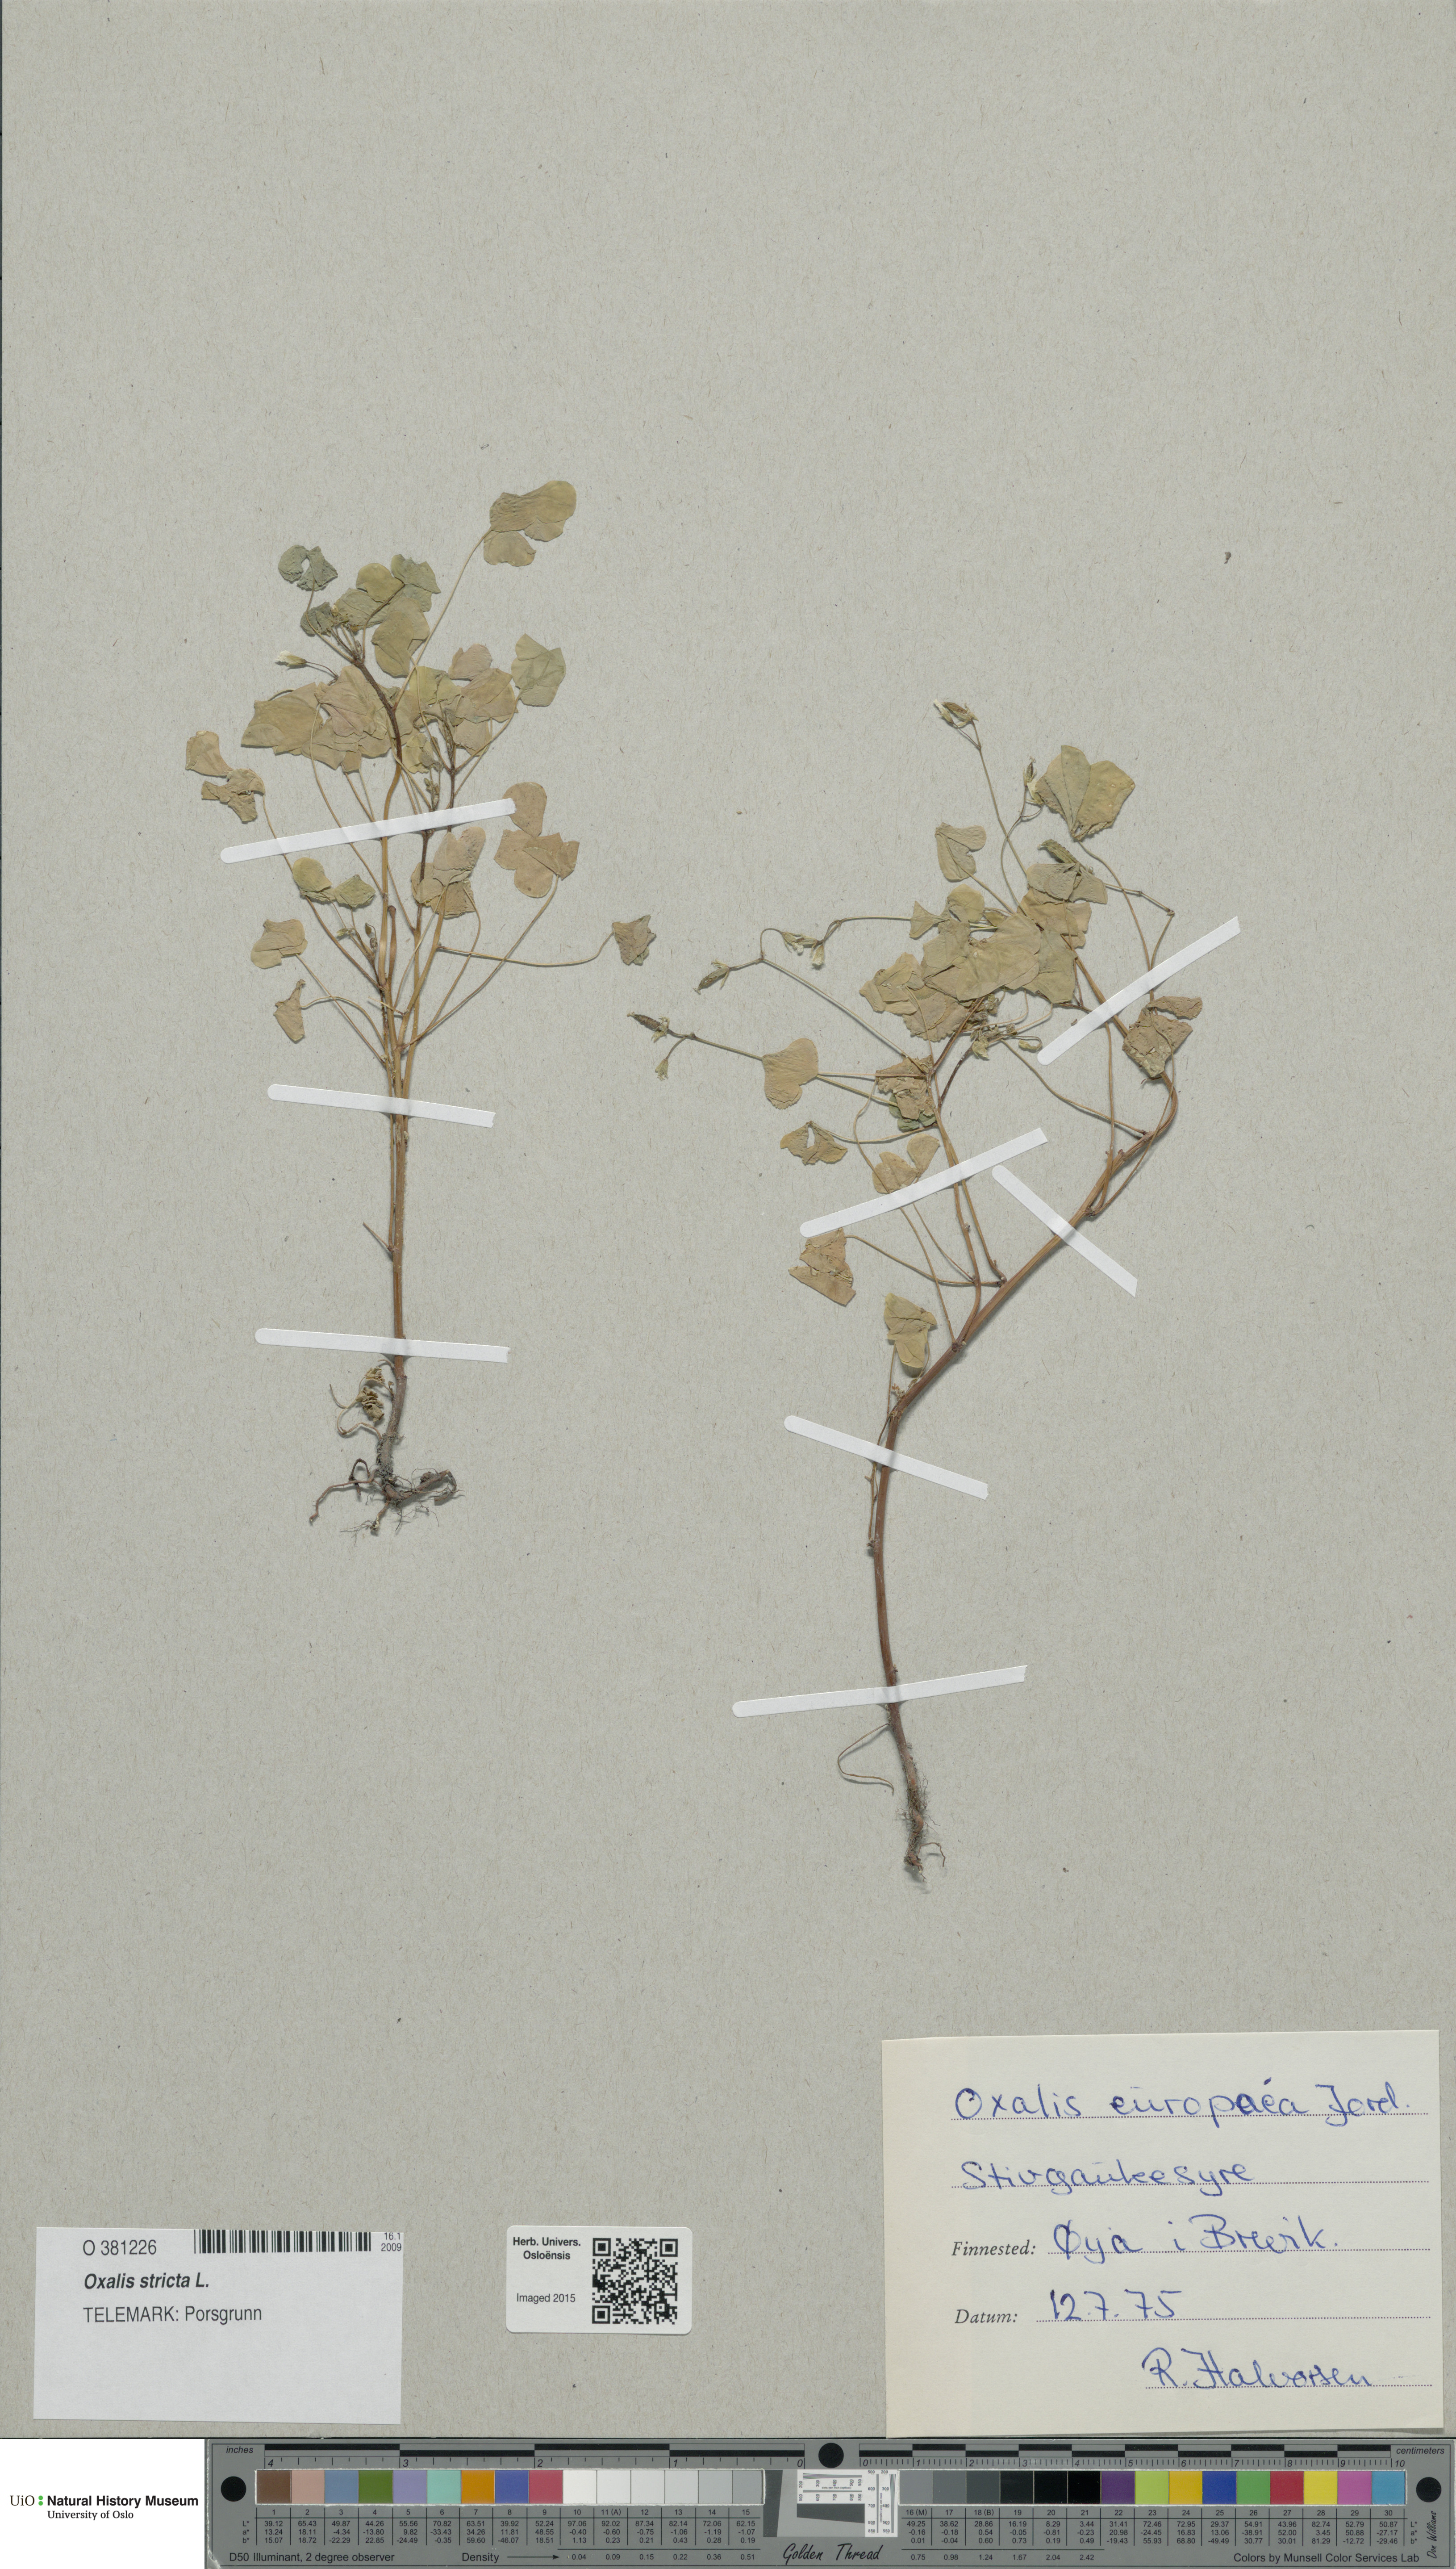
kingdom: Plantae
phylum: Tracheophyta
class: Magnoliopsida
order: Oxalidales
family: Oxalidaceae
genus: Oxalis
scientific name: Oxalis stricta
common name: Upright yellow-sorrel
